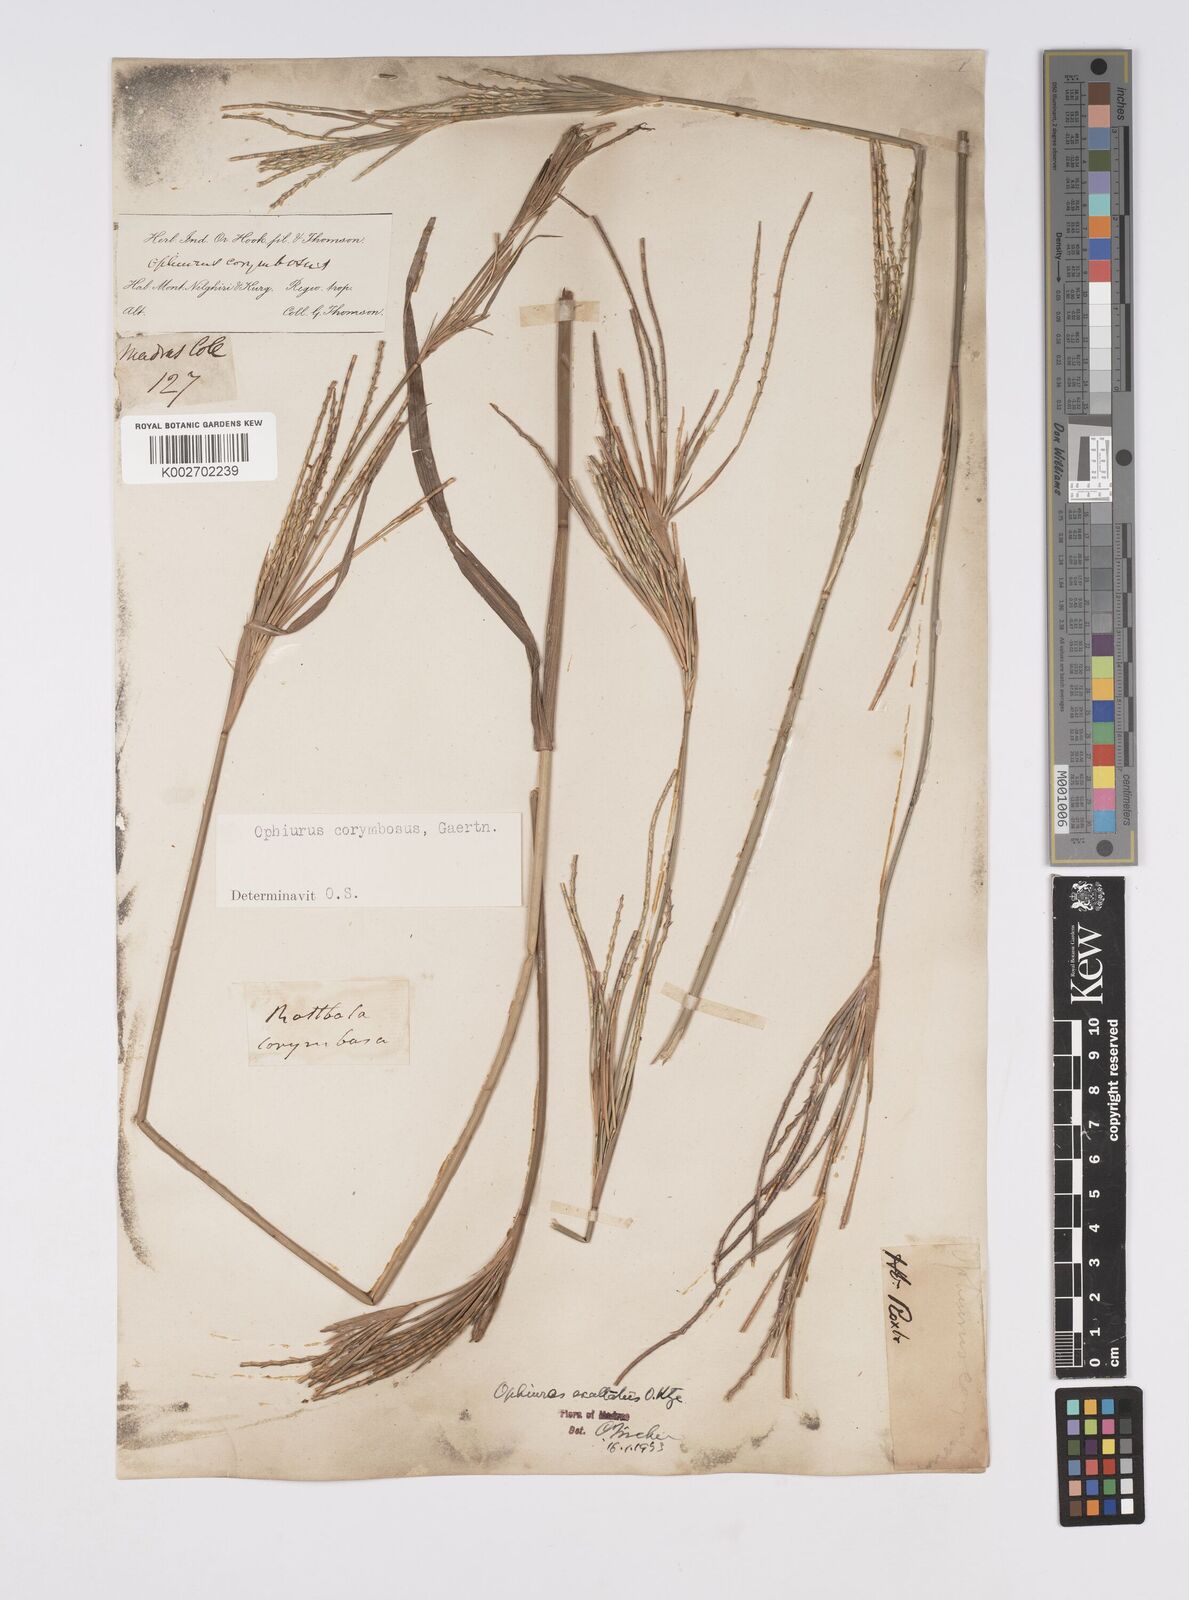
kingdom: Plantae
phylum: Tracheophyta
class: Liliopsida
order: Poales
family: Poaceae
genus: Ophiuros
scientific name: Ophiuros exaltatus
